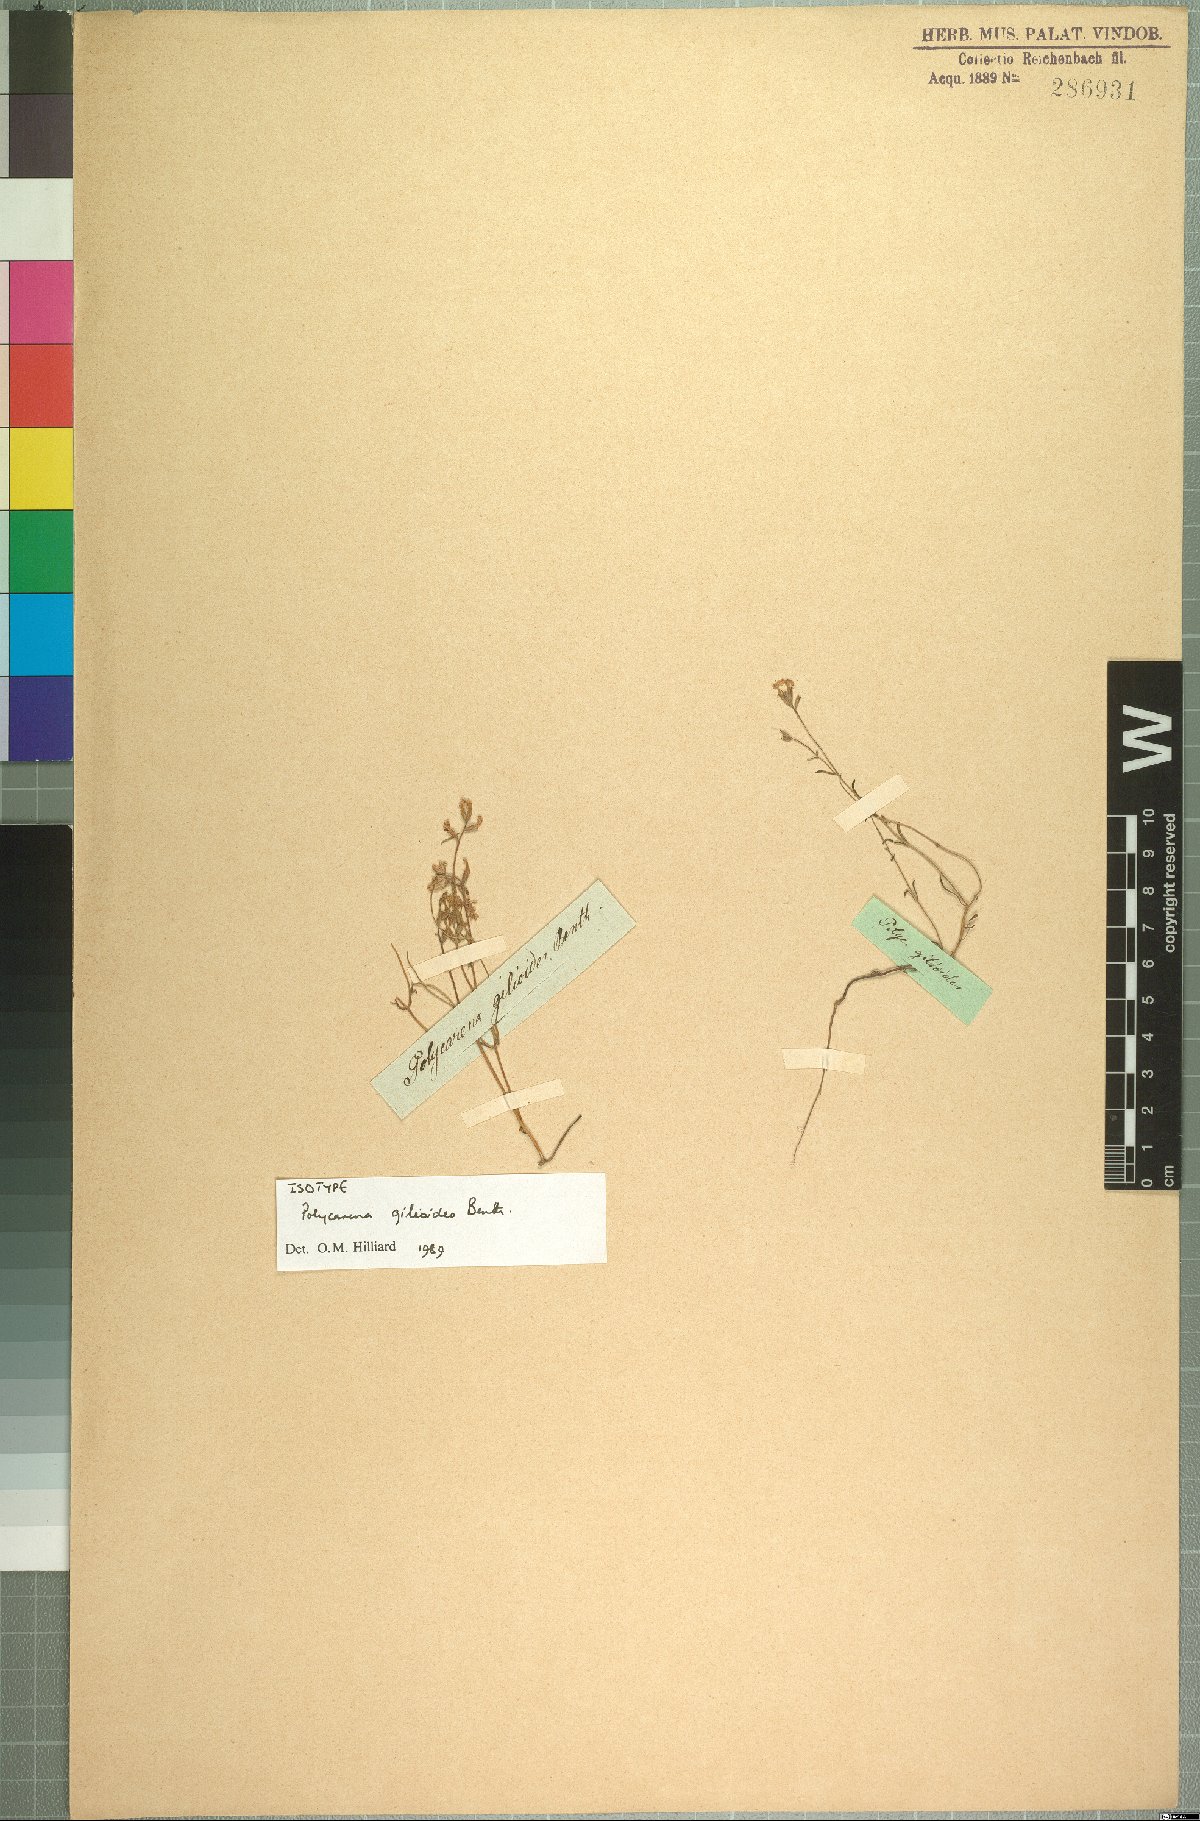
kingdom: Plantae
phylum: Tracheophyta
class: Magnoliopsida
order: Lamiales
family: Scrophulariaceae
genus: Polycarena
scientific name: Polycarena gilioides
